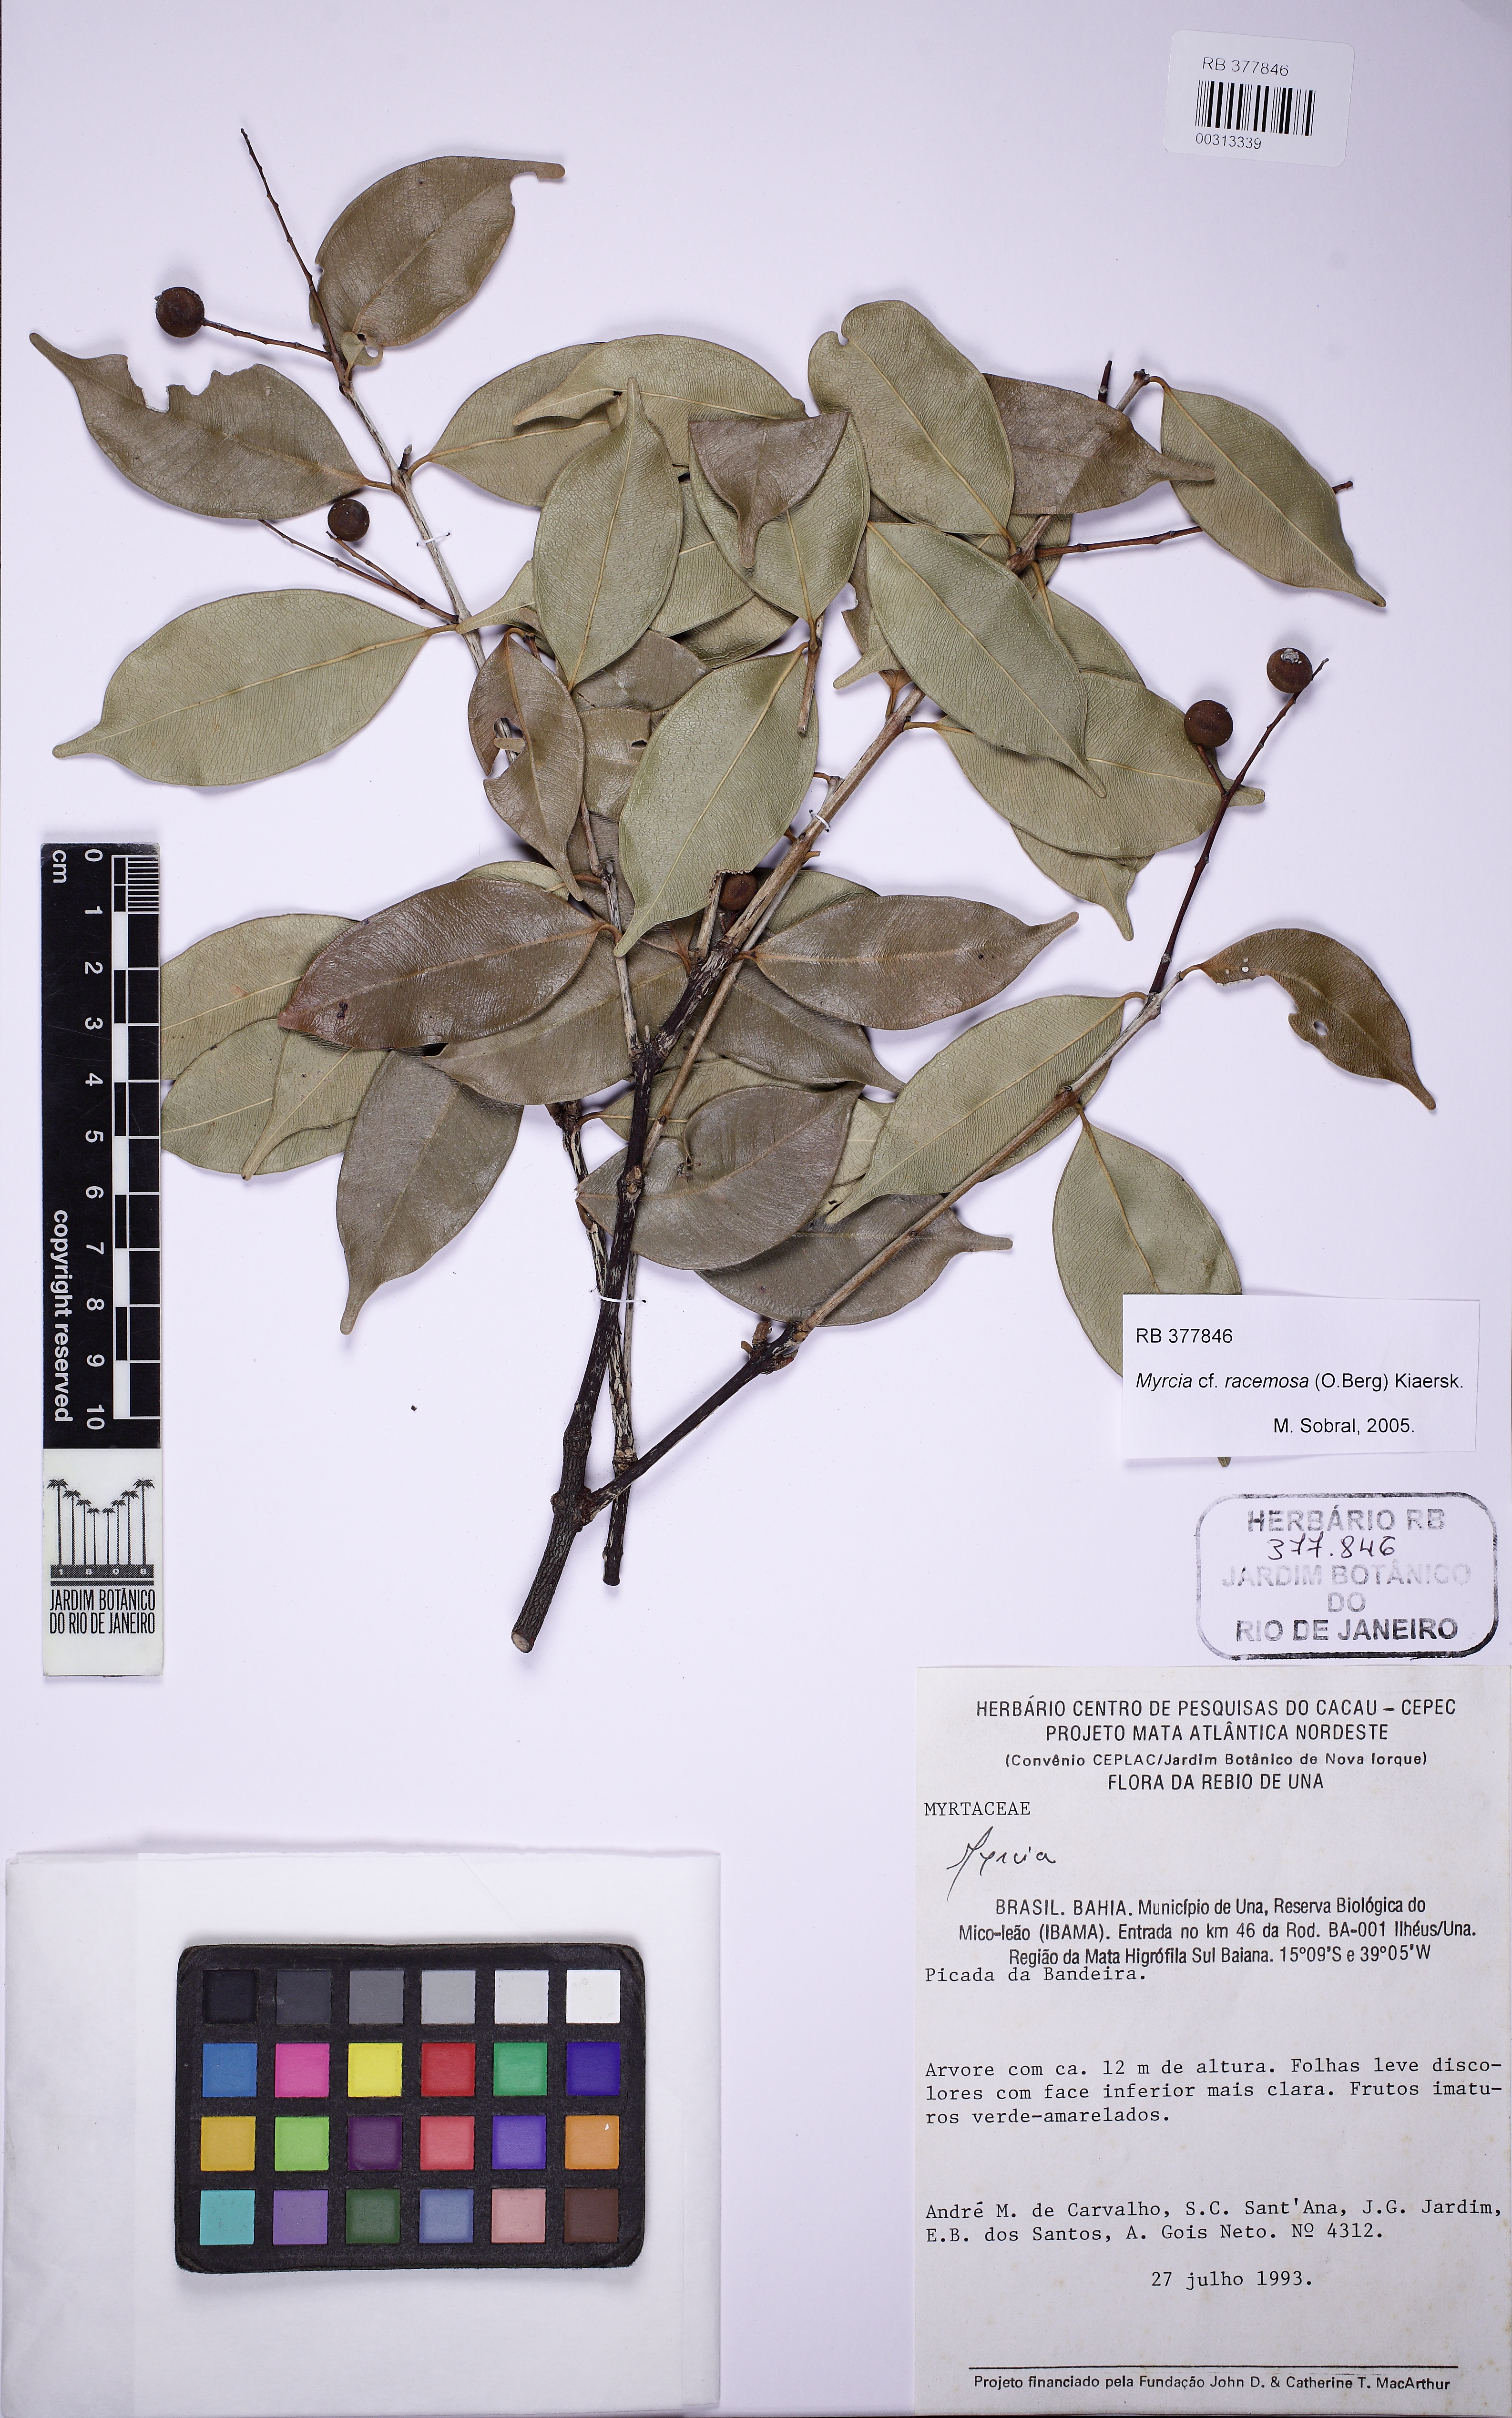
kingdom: Plantae
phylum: Tracheophyta
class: Magnoliopsida
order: Myrtales
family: Myrtaceae
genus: Myrcia
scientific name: Myrcia racemosa
